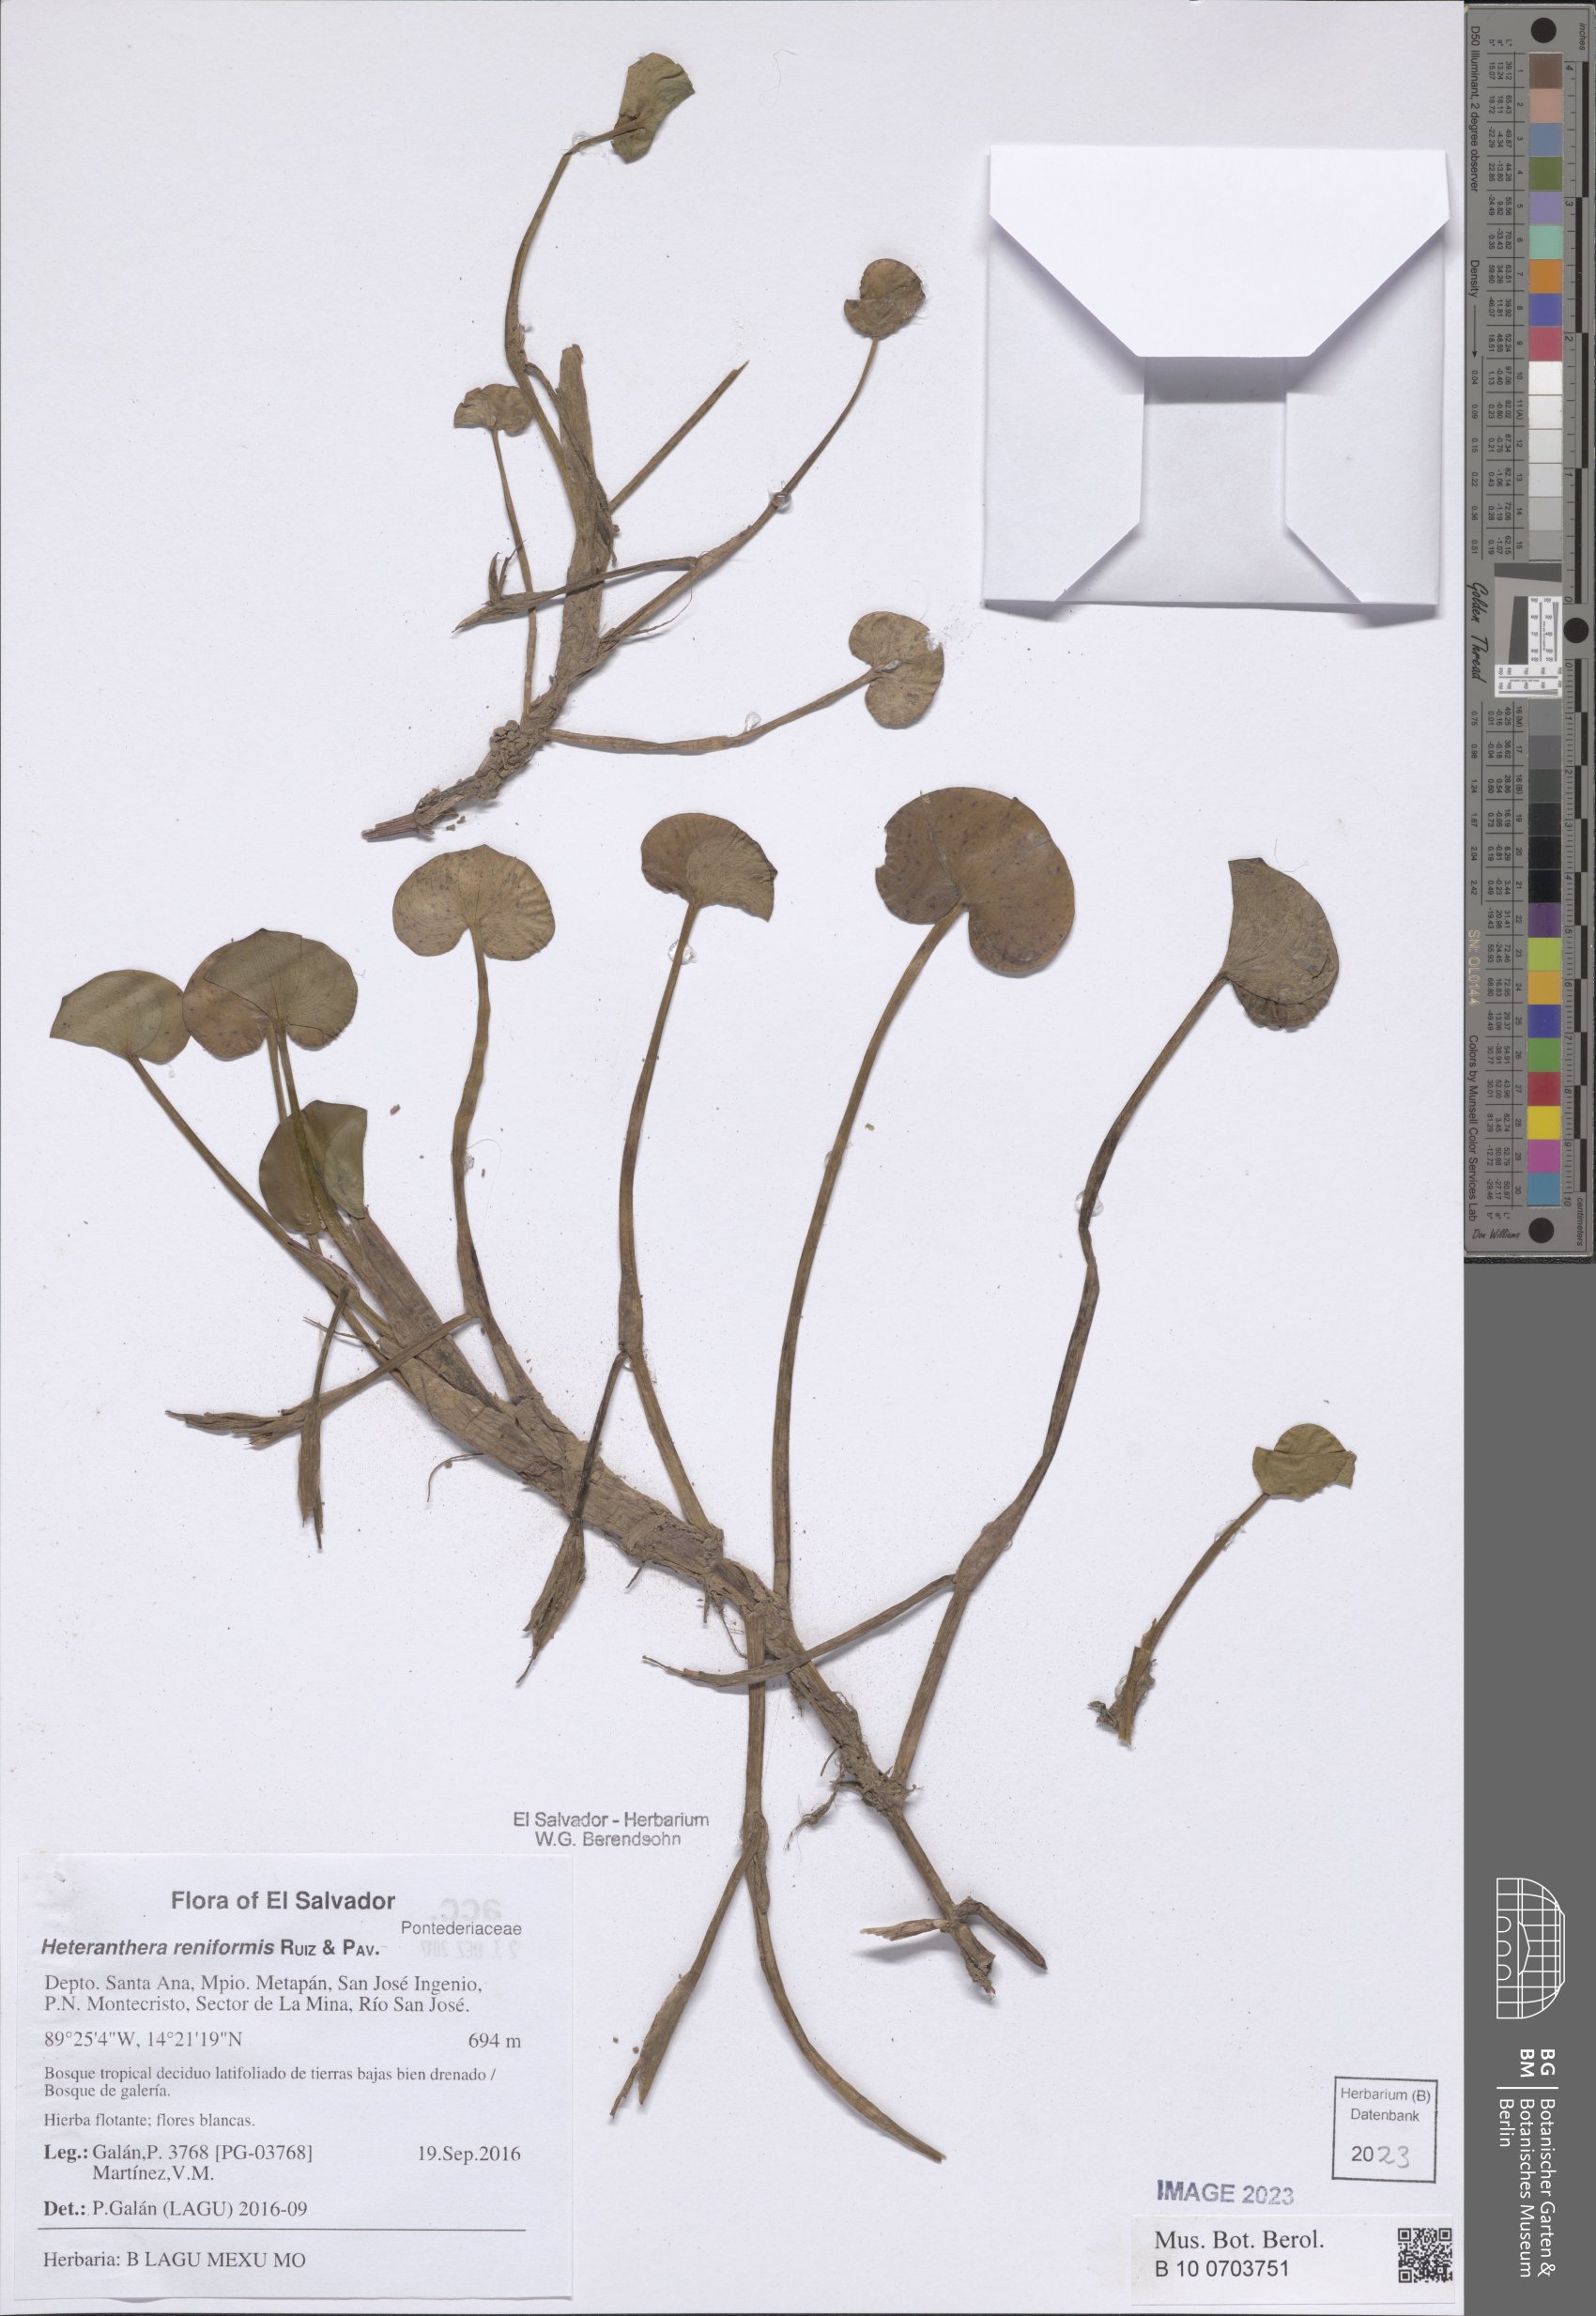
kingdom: Plantae
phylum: Tracheophyta
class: Liliopsida
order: Commelinales
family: Pontederiaceae
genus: Heteranthera
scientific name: Heteranthera reniformis
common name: Kidneyleaf mudplantain
